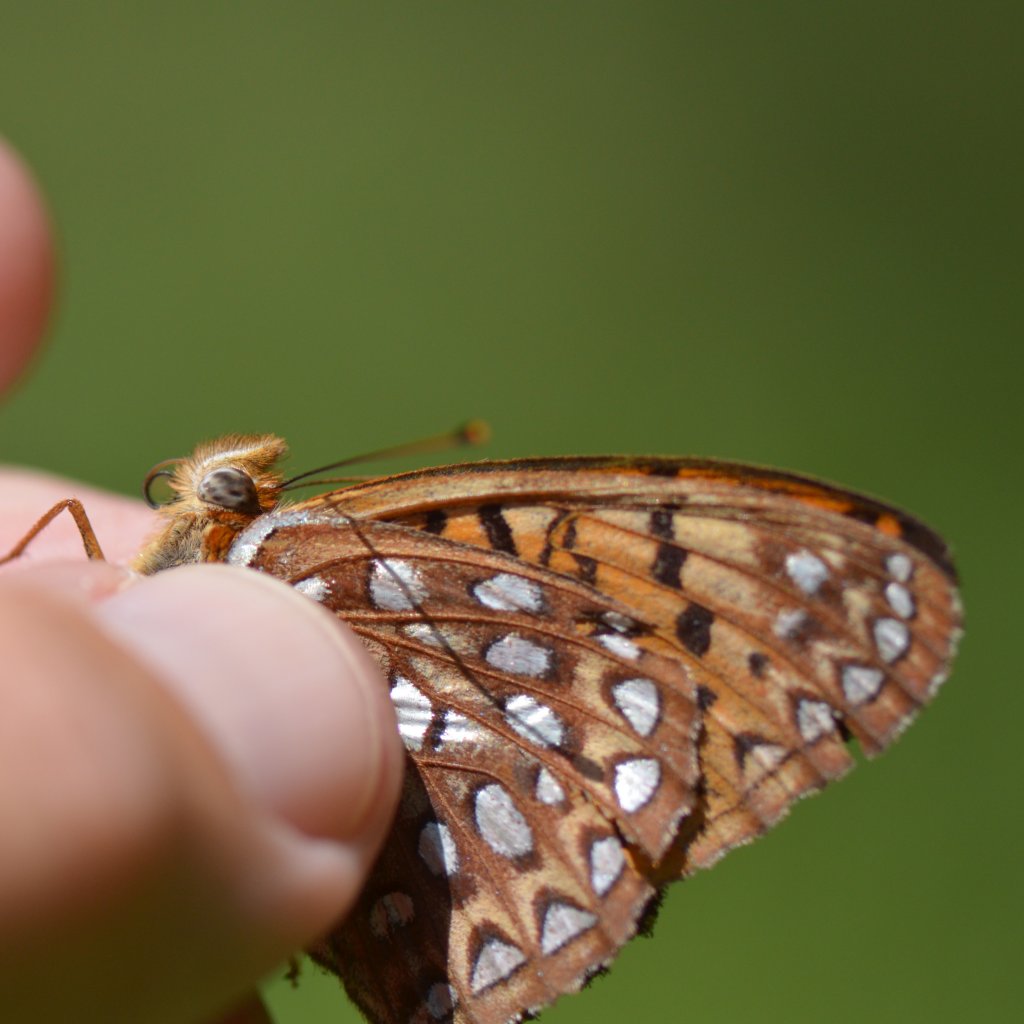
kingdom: Animalia
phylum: Arthropoda
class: Insecta
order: Lepidoptera
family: Nymphalidae
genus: Speyeria
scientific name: Speyeria atlantis
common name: Atlantis Fritillary
